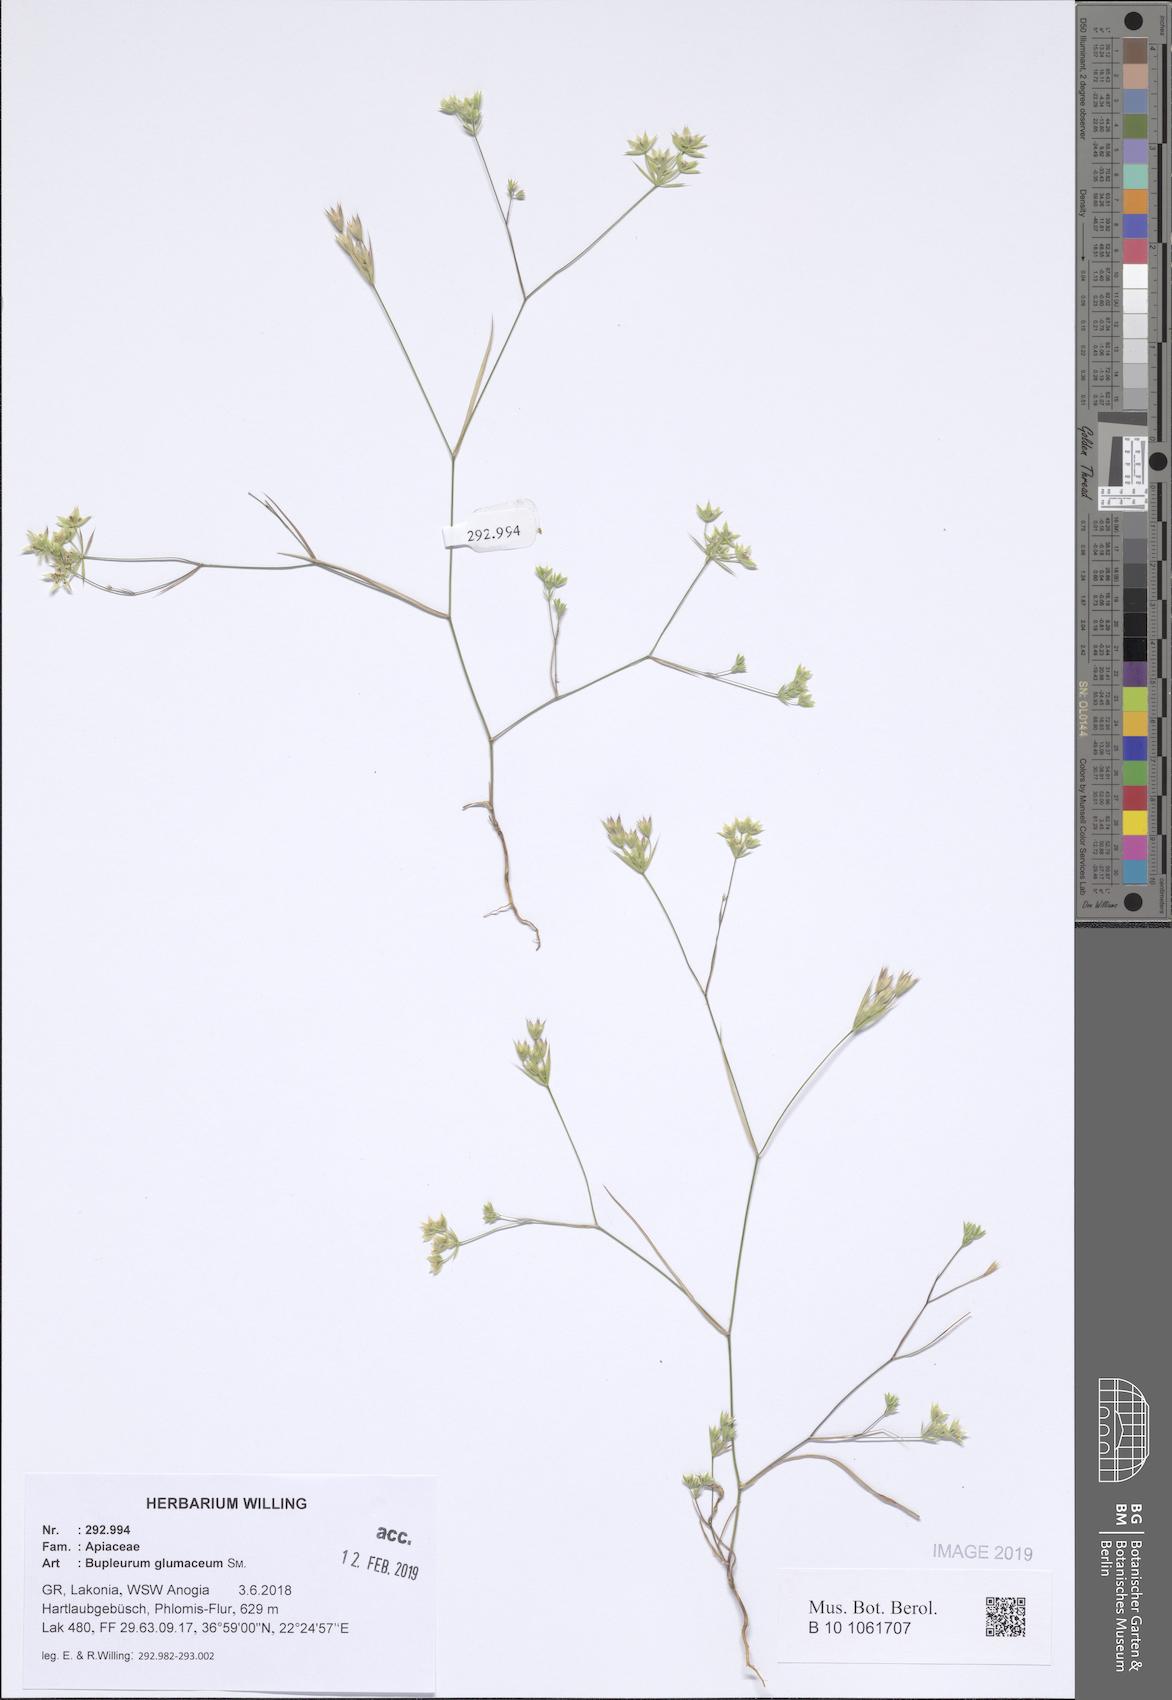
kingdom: Plantae
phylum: Tracheophyta
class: Magnoliopsida
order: Apiales
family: Apiaceae
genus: Bupleurum
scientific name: Bupleurum glumaceum
